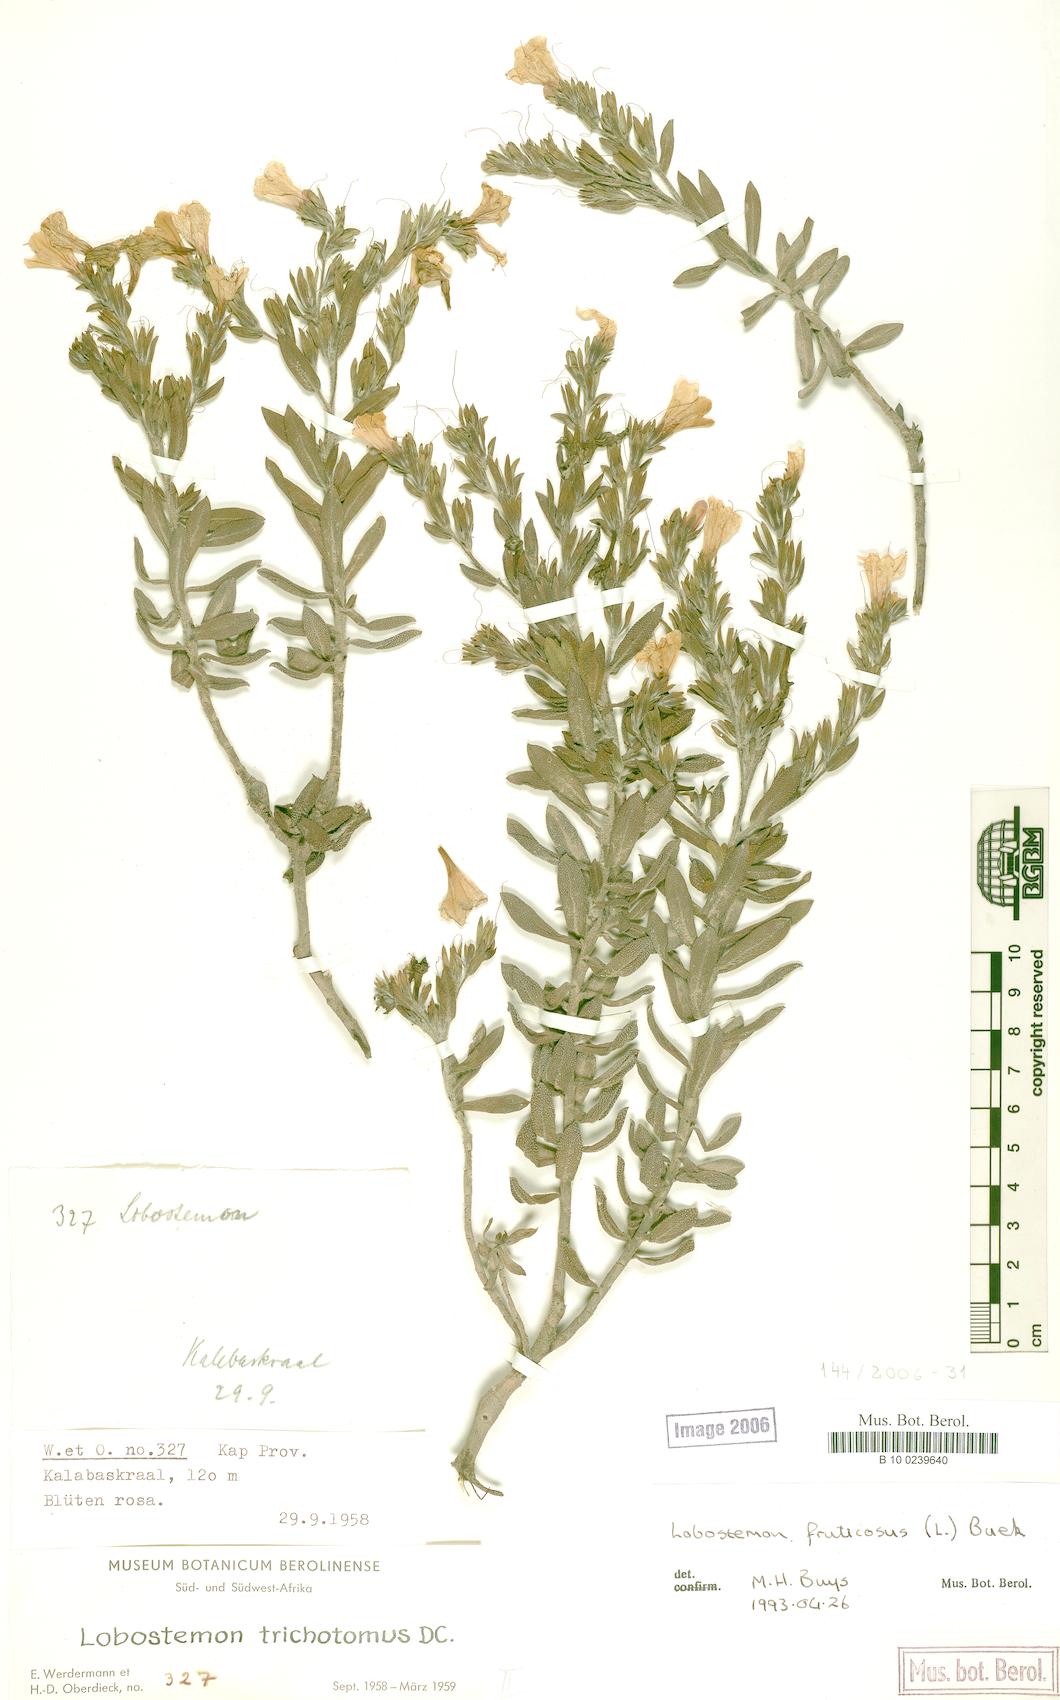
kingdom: Plantae
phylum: Tracheophyta
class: Magnoliopsida
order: Boraginales
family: Boraginaceae
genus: Lobostemon
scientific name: Lobostemon trichotomus
